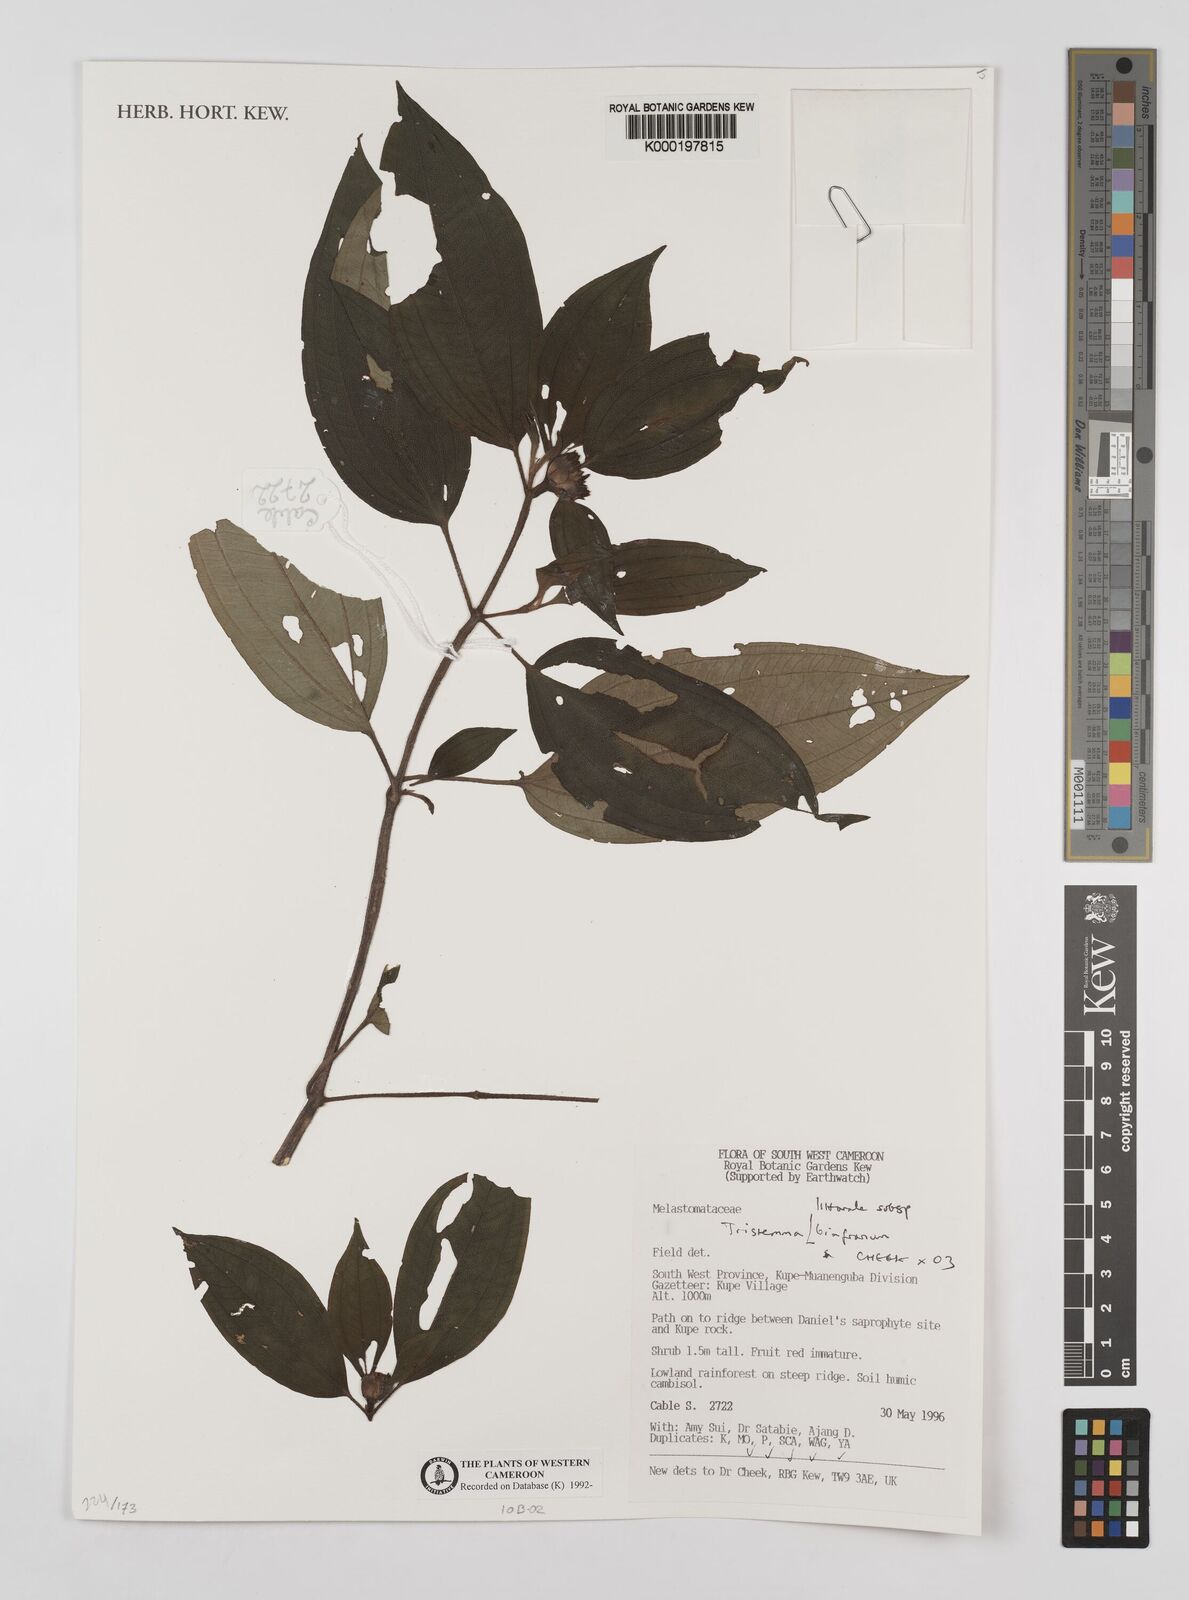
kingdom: Plantae
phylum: Tracheophyta
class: Magnoliopsida
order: Myrtales
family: Melastomataceae
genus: Tristemma
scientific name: Tristemma littorale
